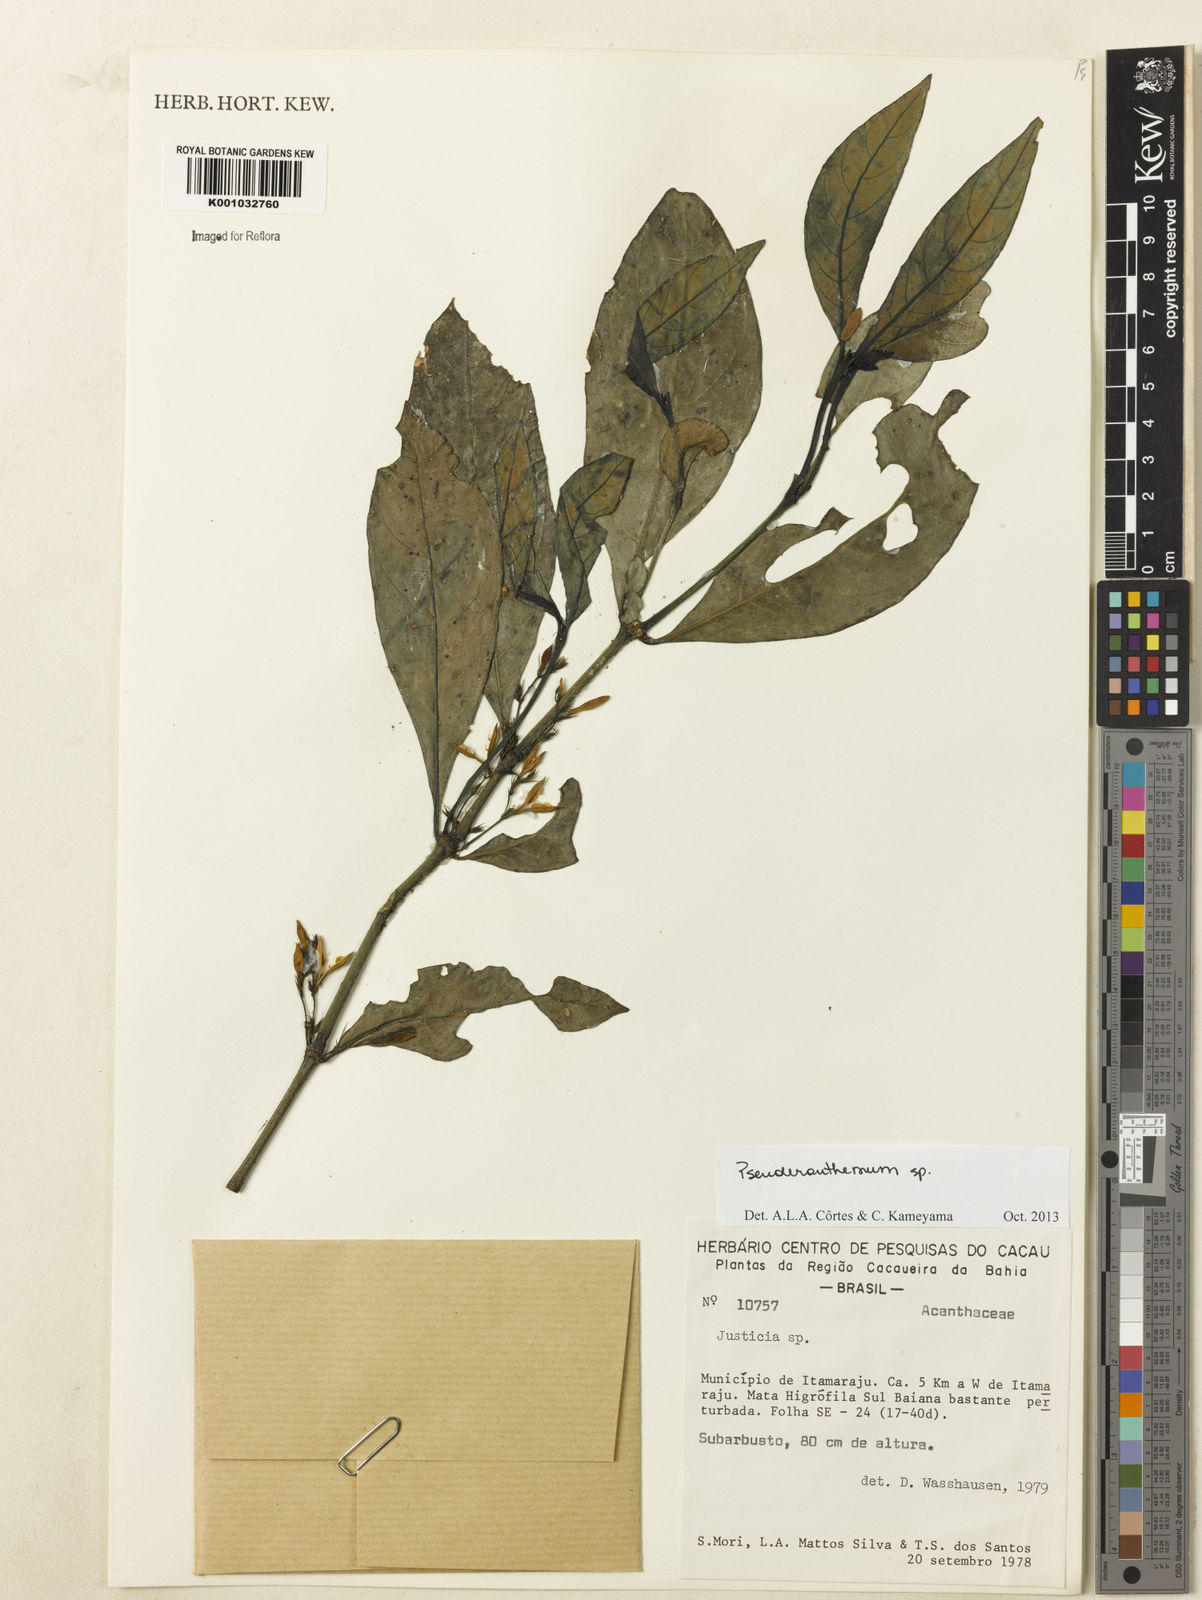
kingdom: Plantae
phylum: Tracheophyta
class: Magnoliopsida
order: Lamiales
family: Acanthaceae
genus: Pseuderanthemum
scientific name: Pseuderanthemum
